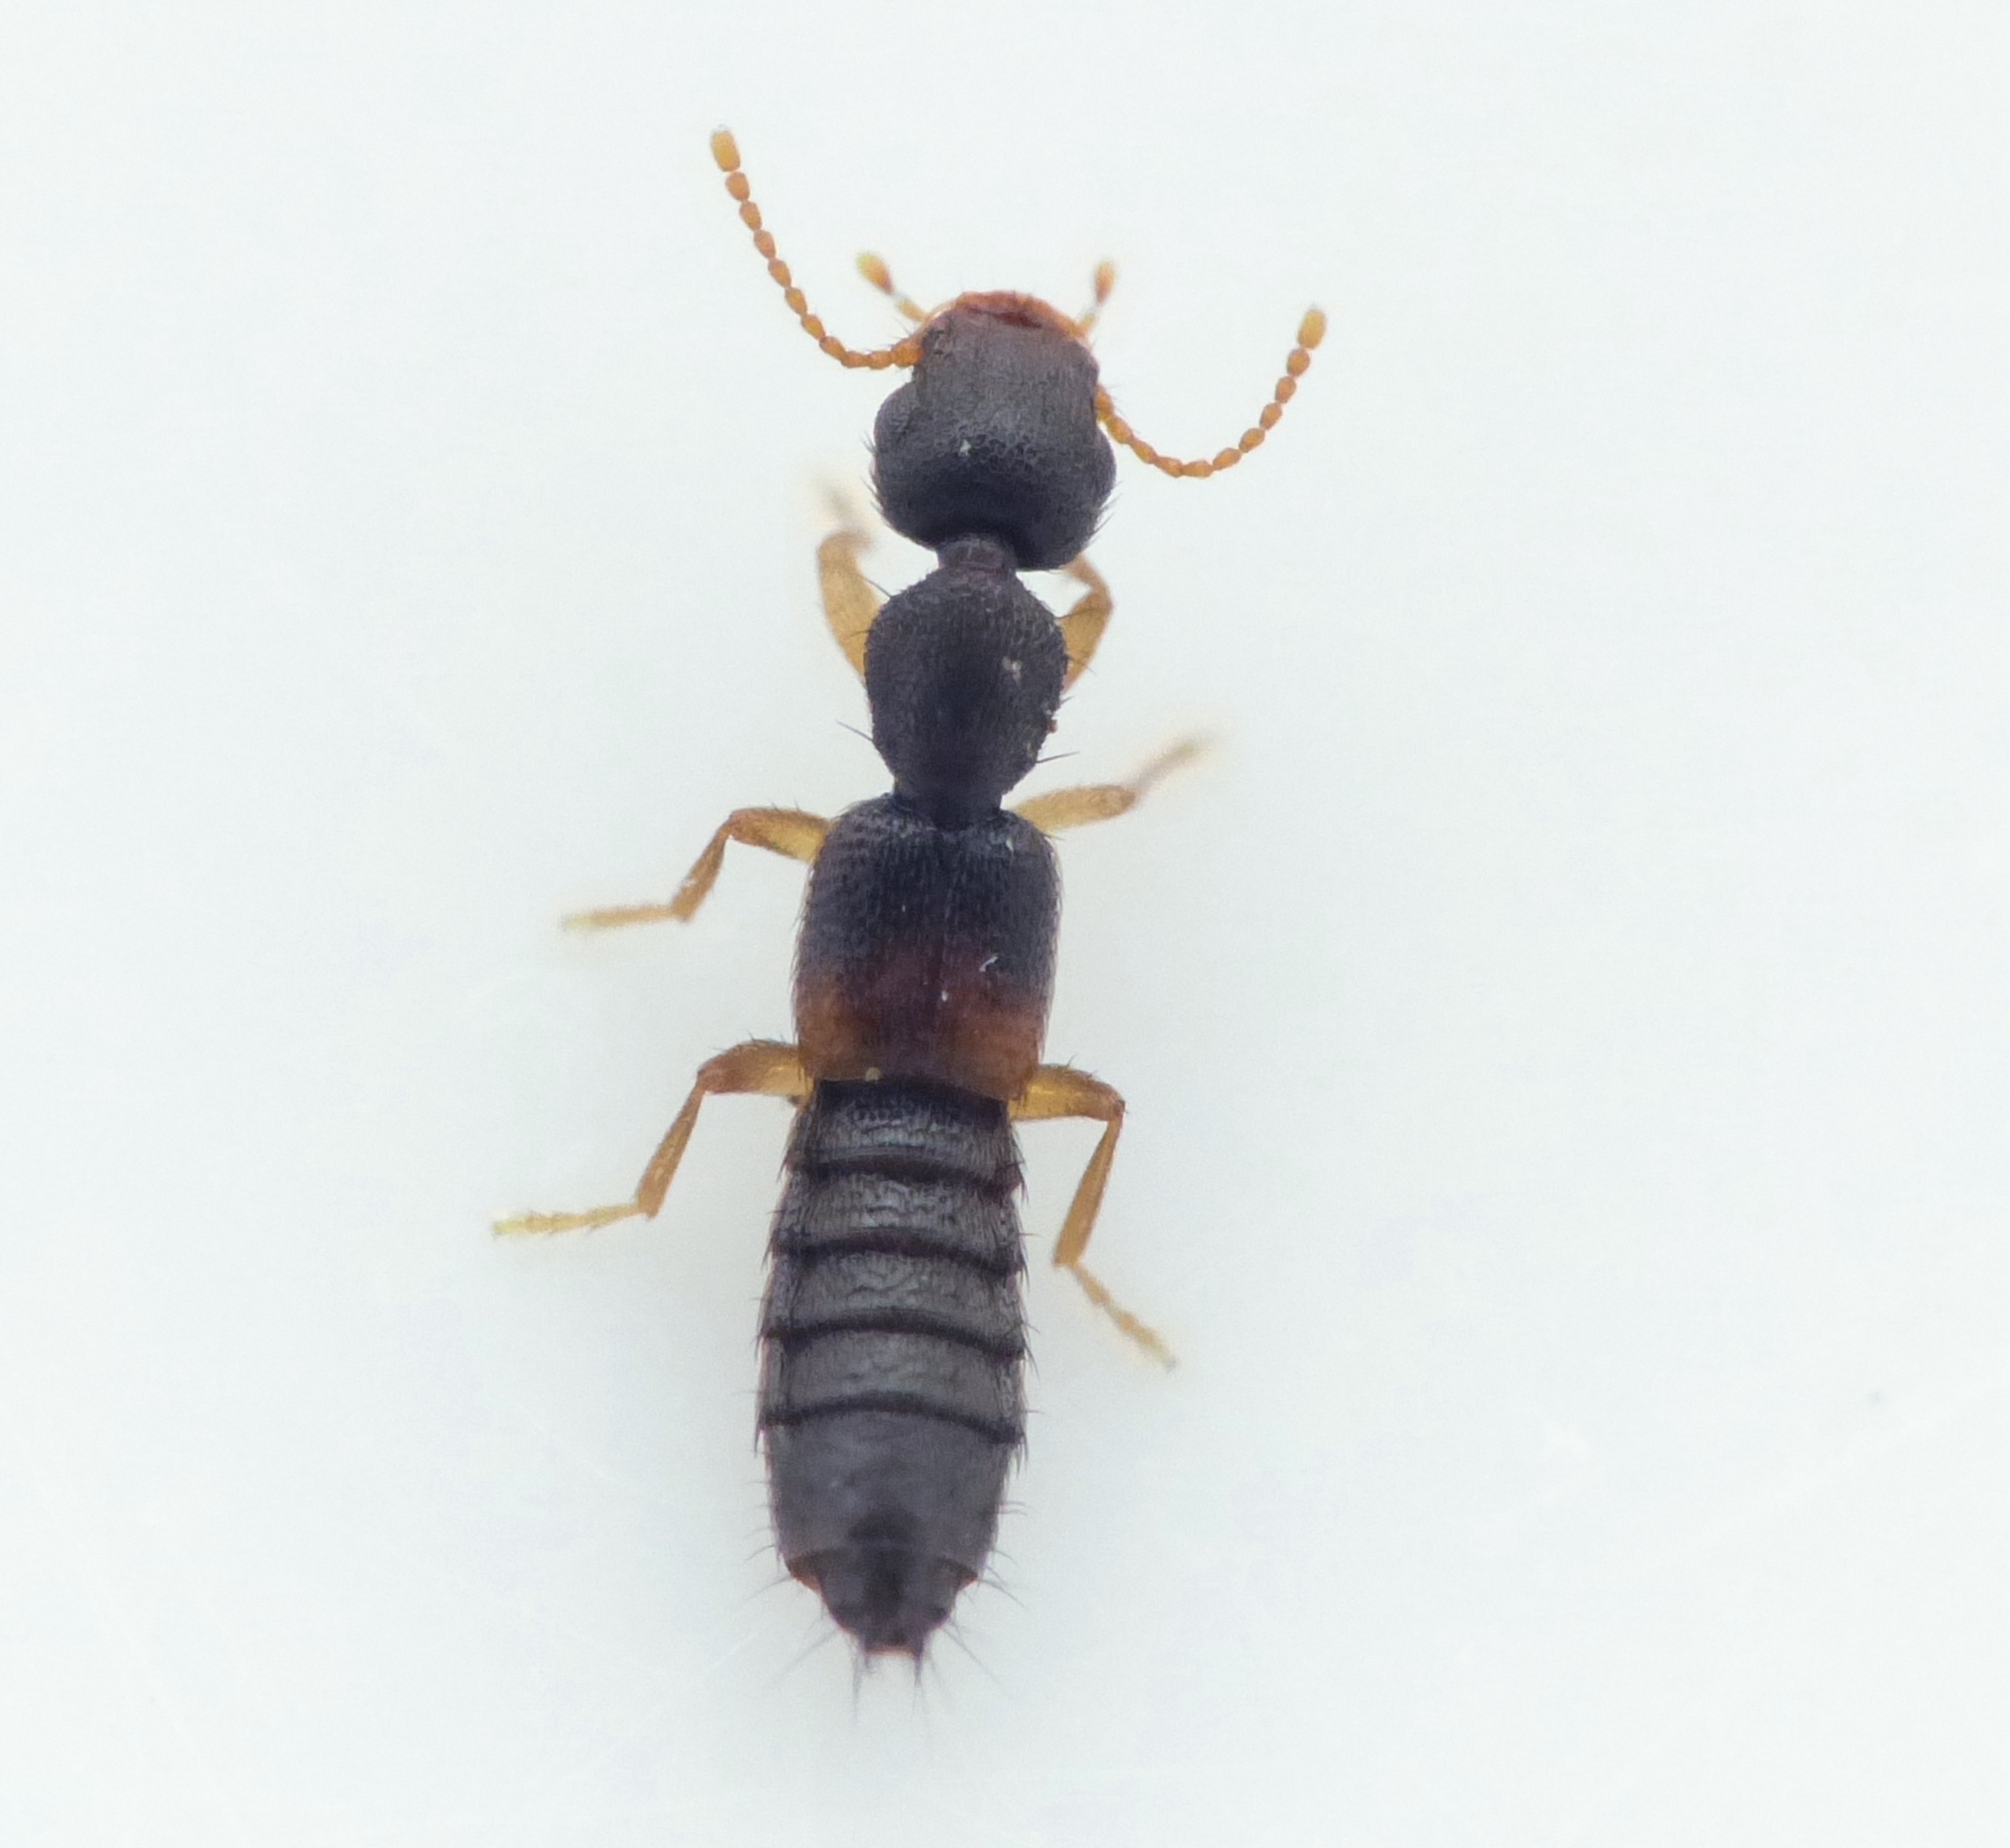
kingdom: Animalia
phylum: Arthropoda
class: Insecta
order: Coleoptera
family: Staphylinidae
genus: Astenus
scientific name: Astenus lyonessius
